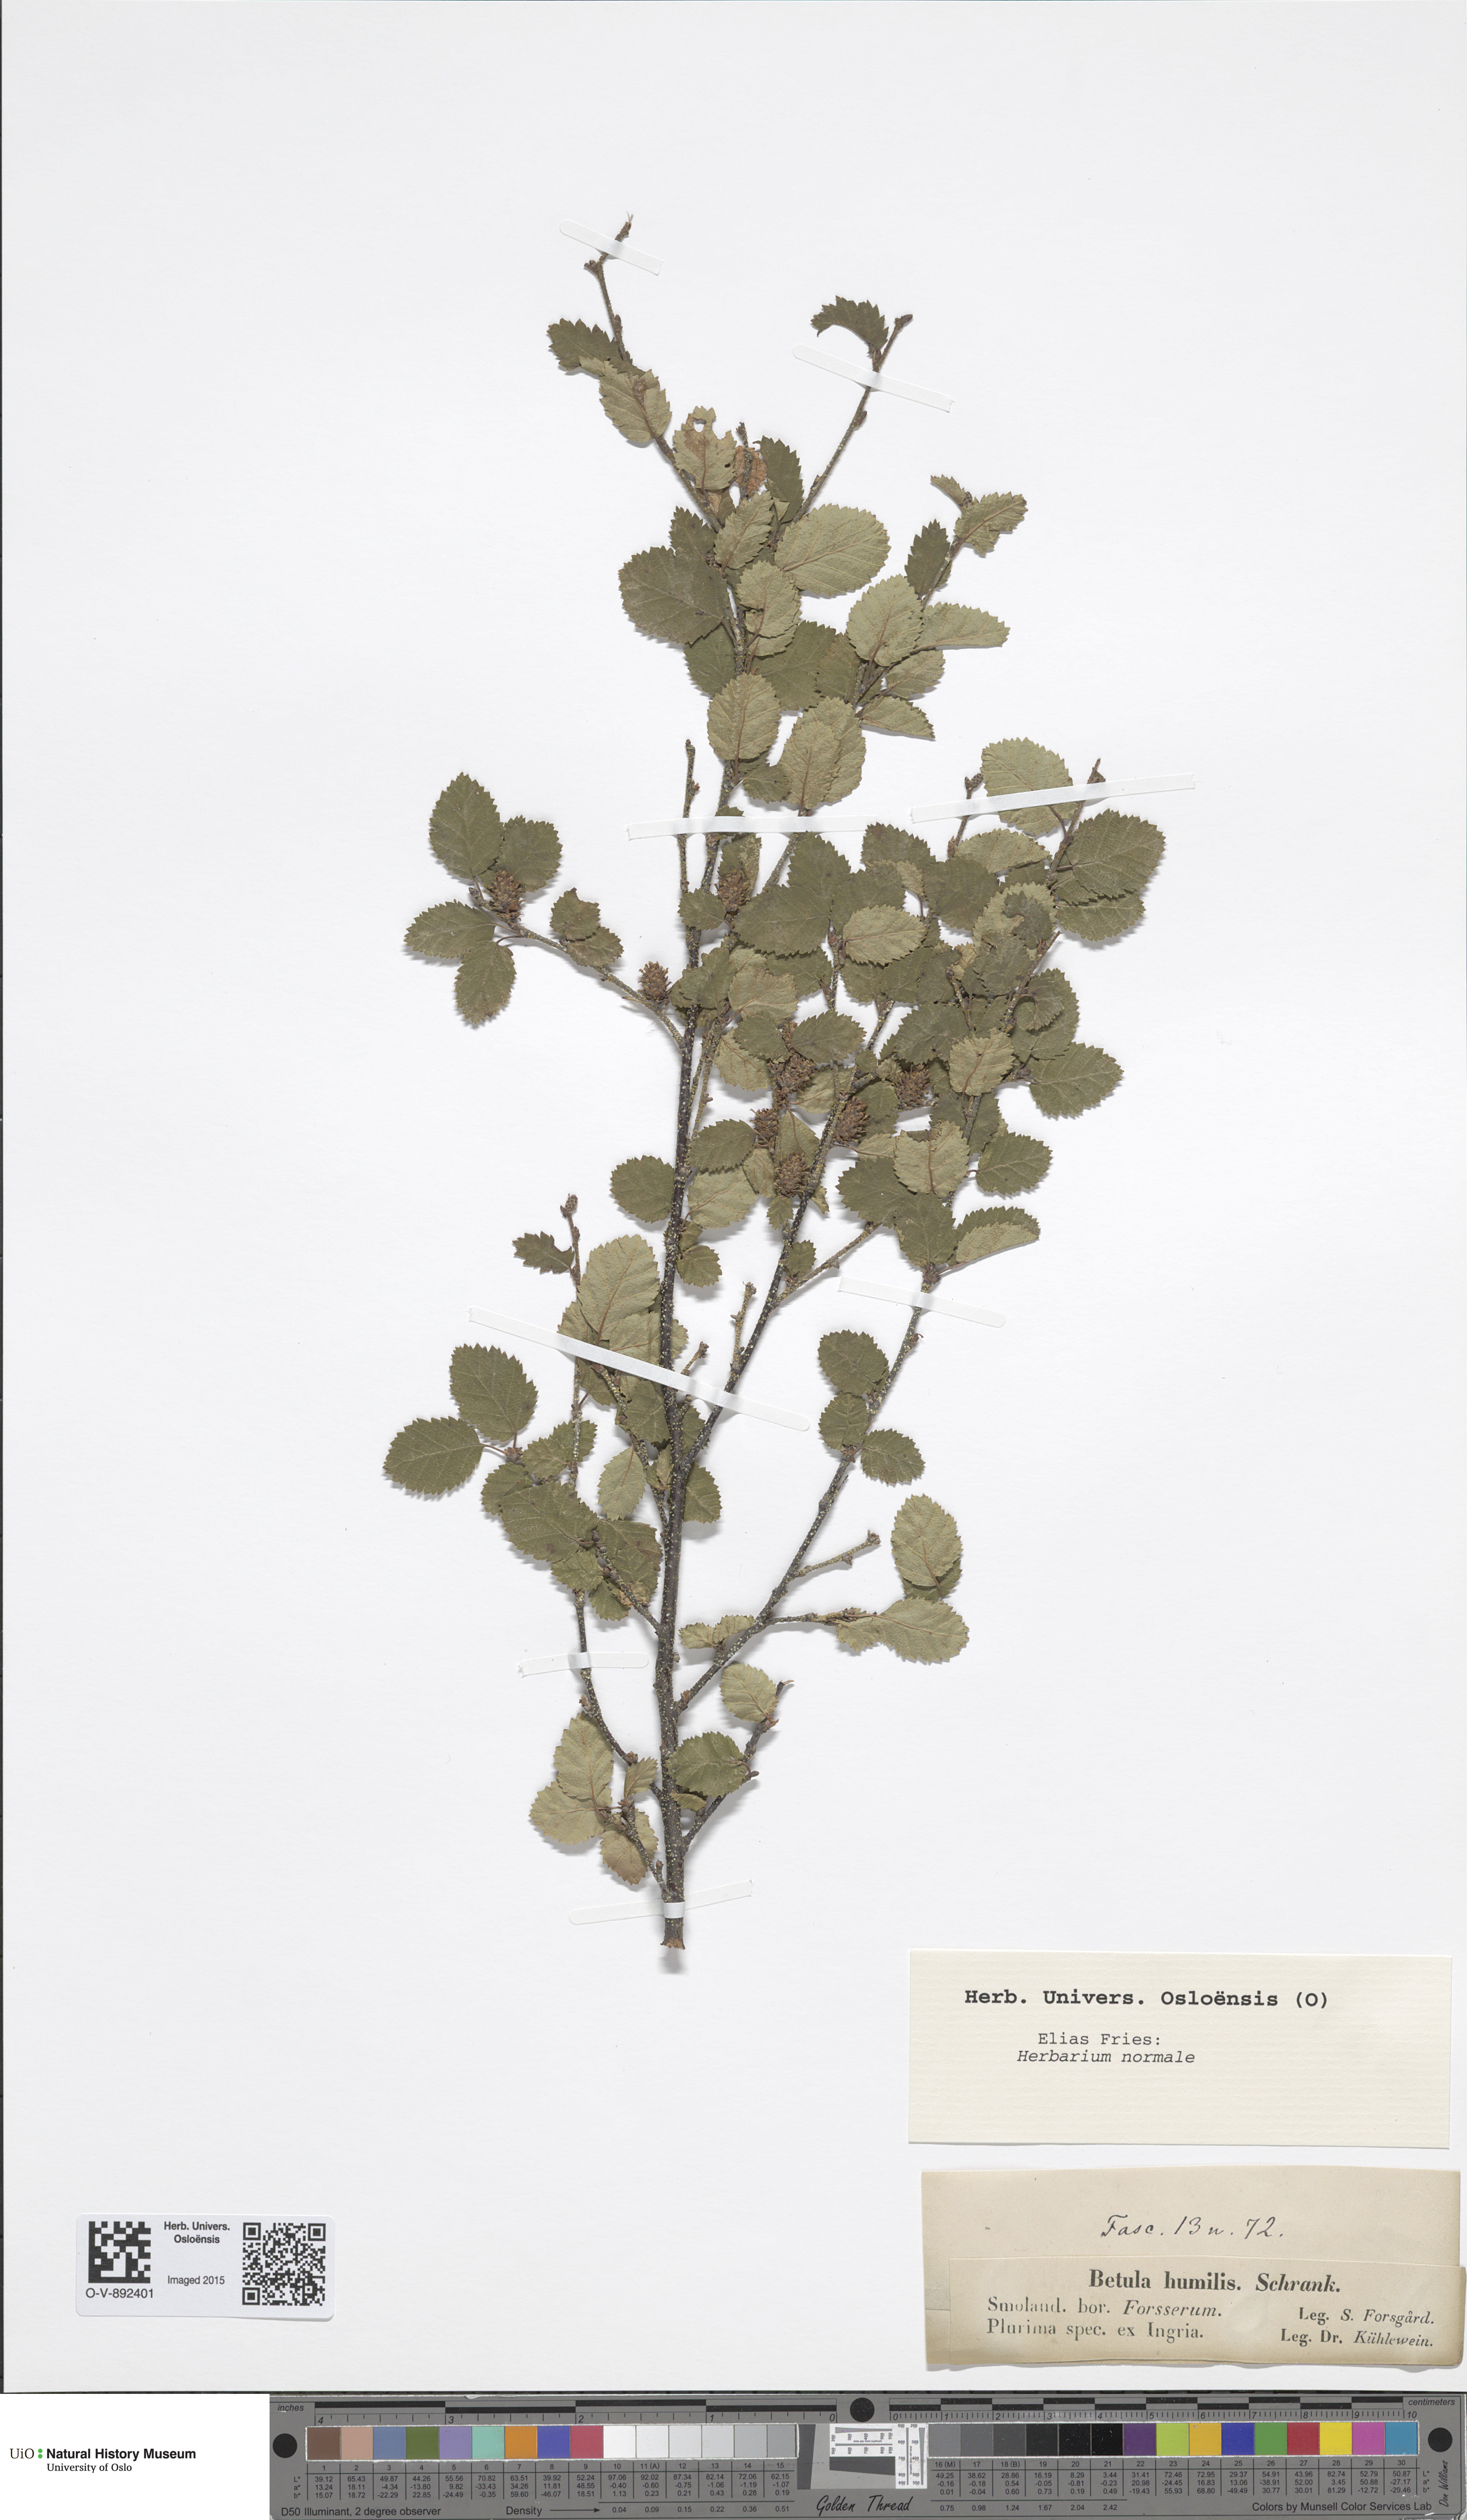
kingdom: Plantae
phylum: Tracheophyta
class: Magnoliopsida
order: Fagales
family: Betulaceae
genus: Betula
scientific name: Betula humilis
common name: Shrubby birch
